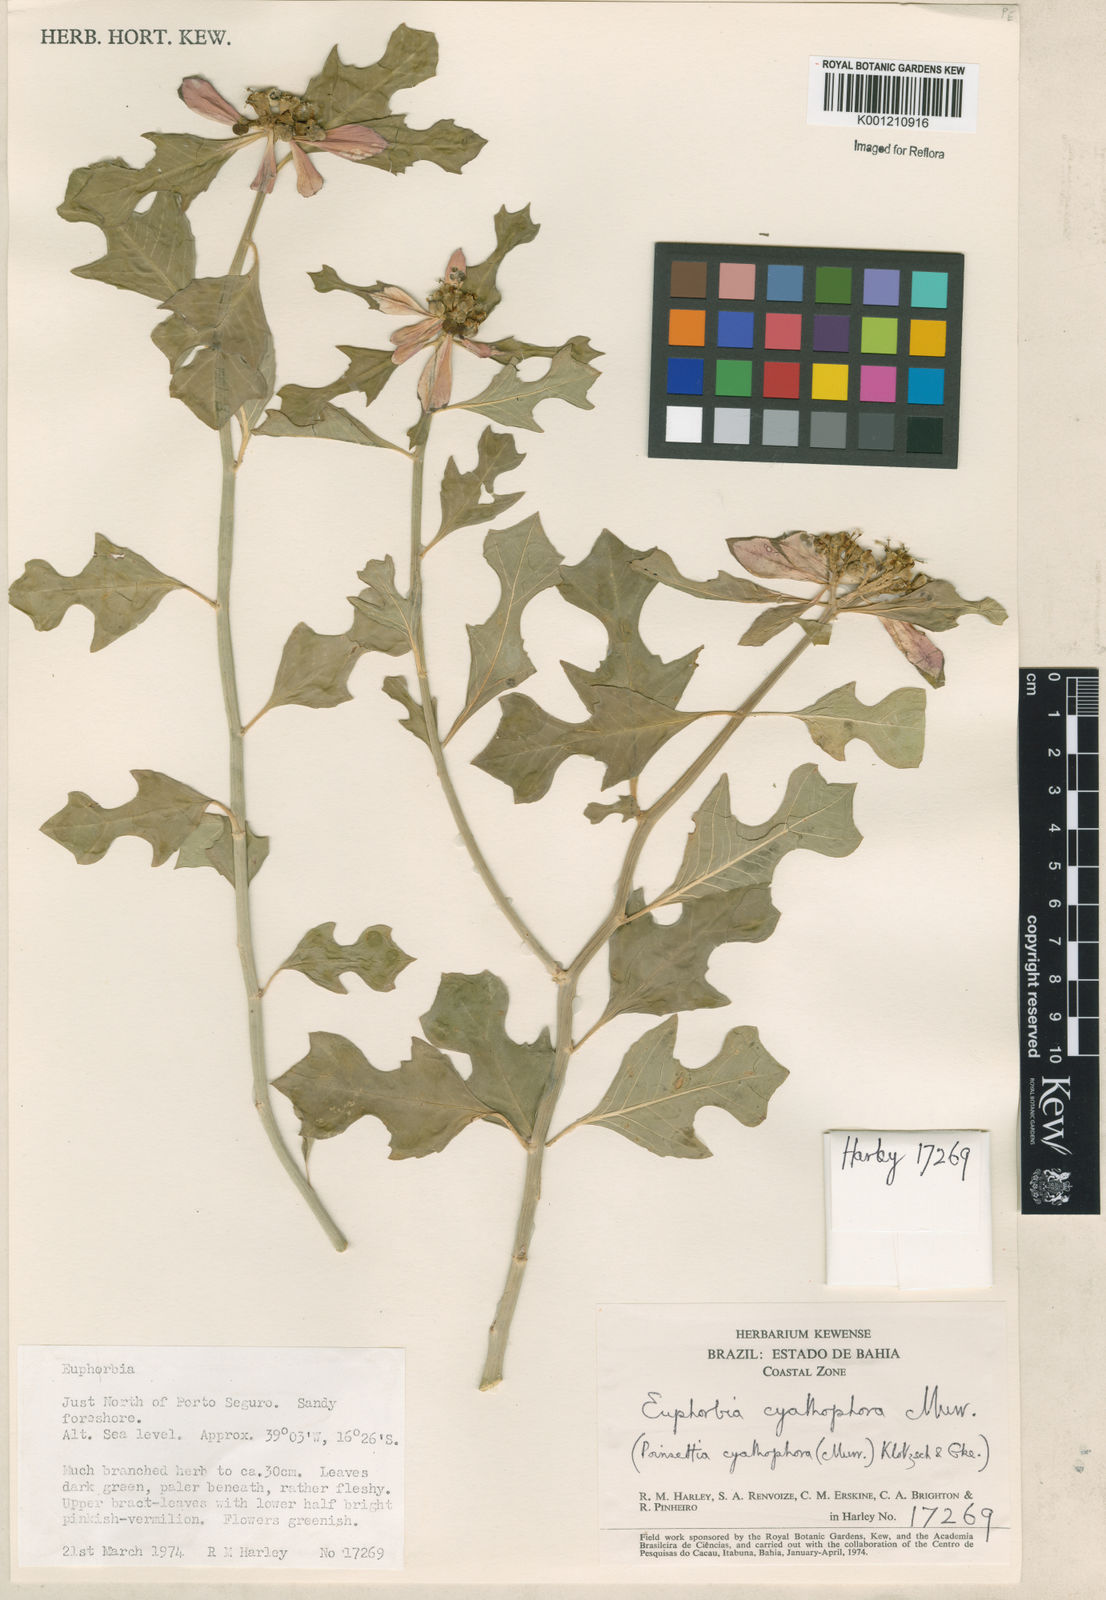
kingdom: Plantae
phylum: Tracheophyta
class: Magnoliopsida
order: Malpighiales
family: Euphorbiaceae
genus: Euphorbia
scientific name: Euphorbia heterophylla
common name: Mexican fireplant
